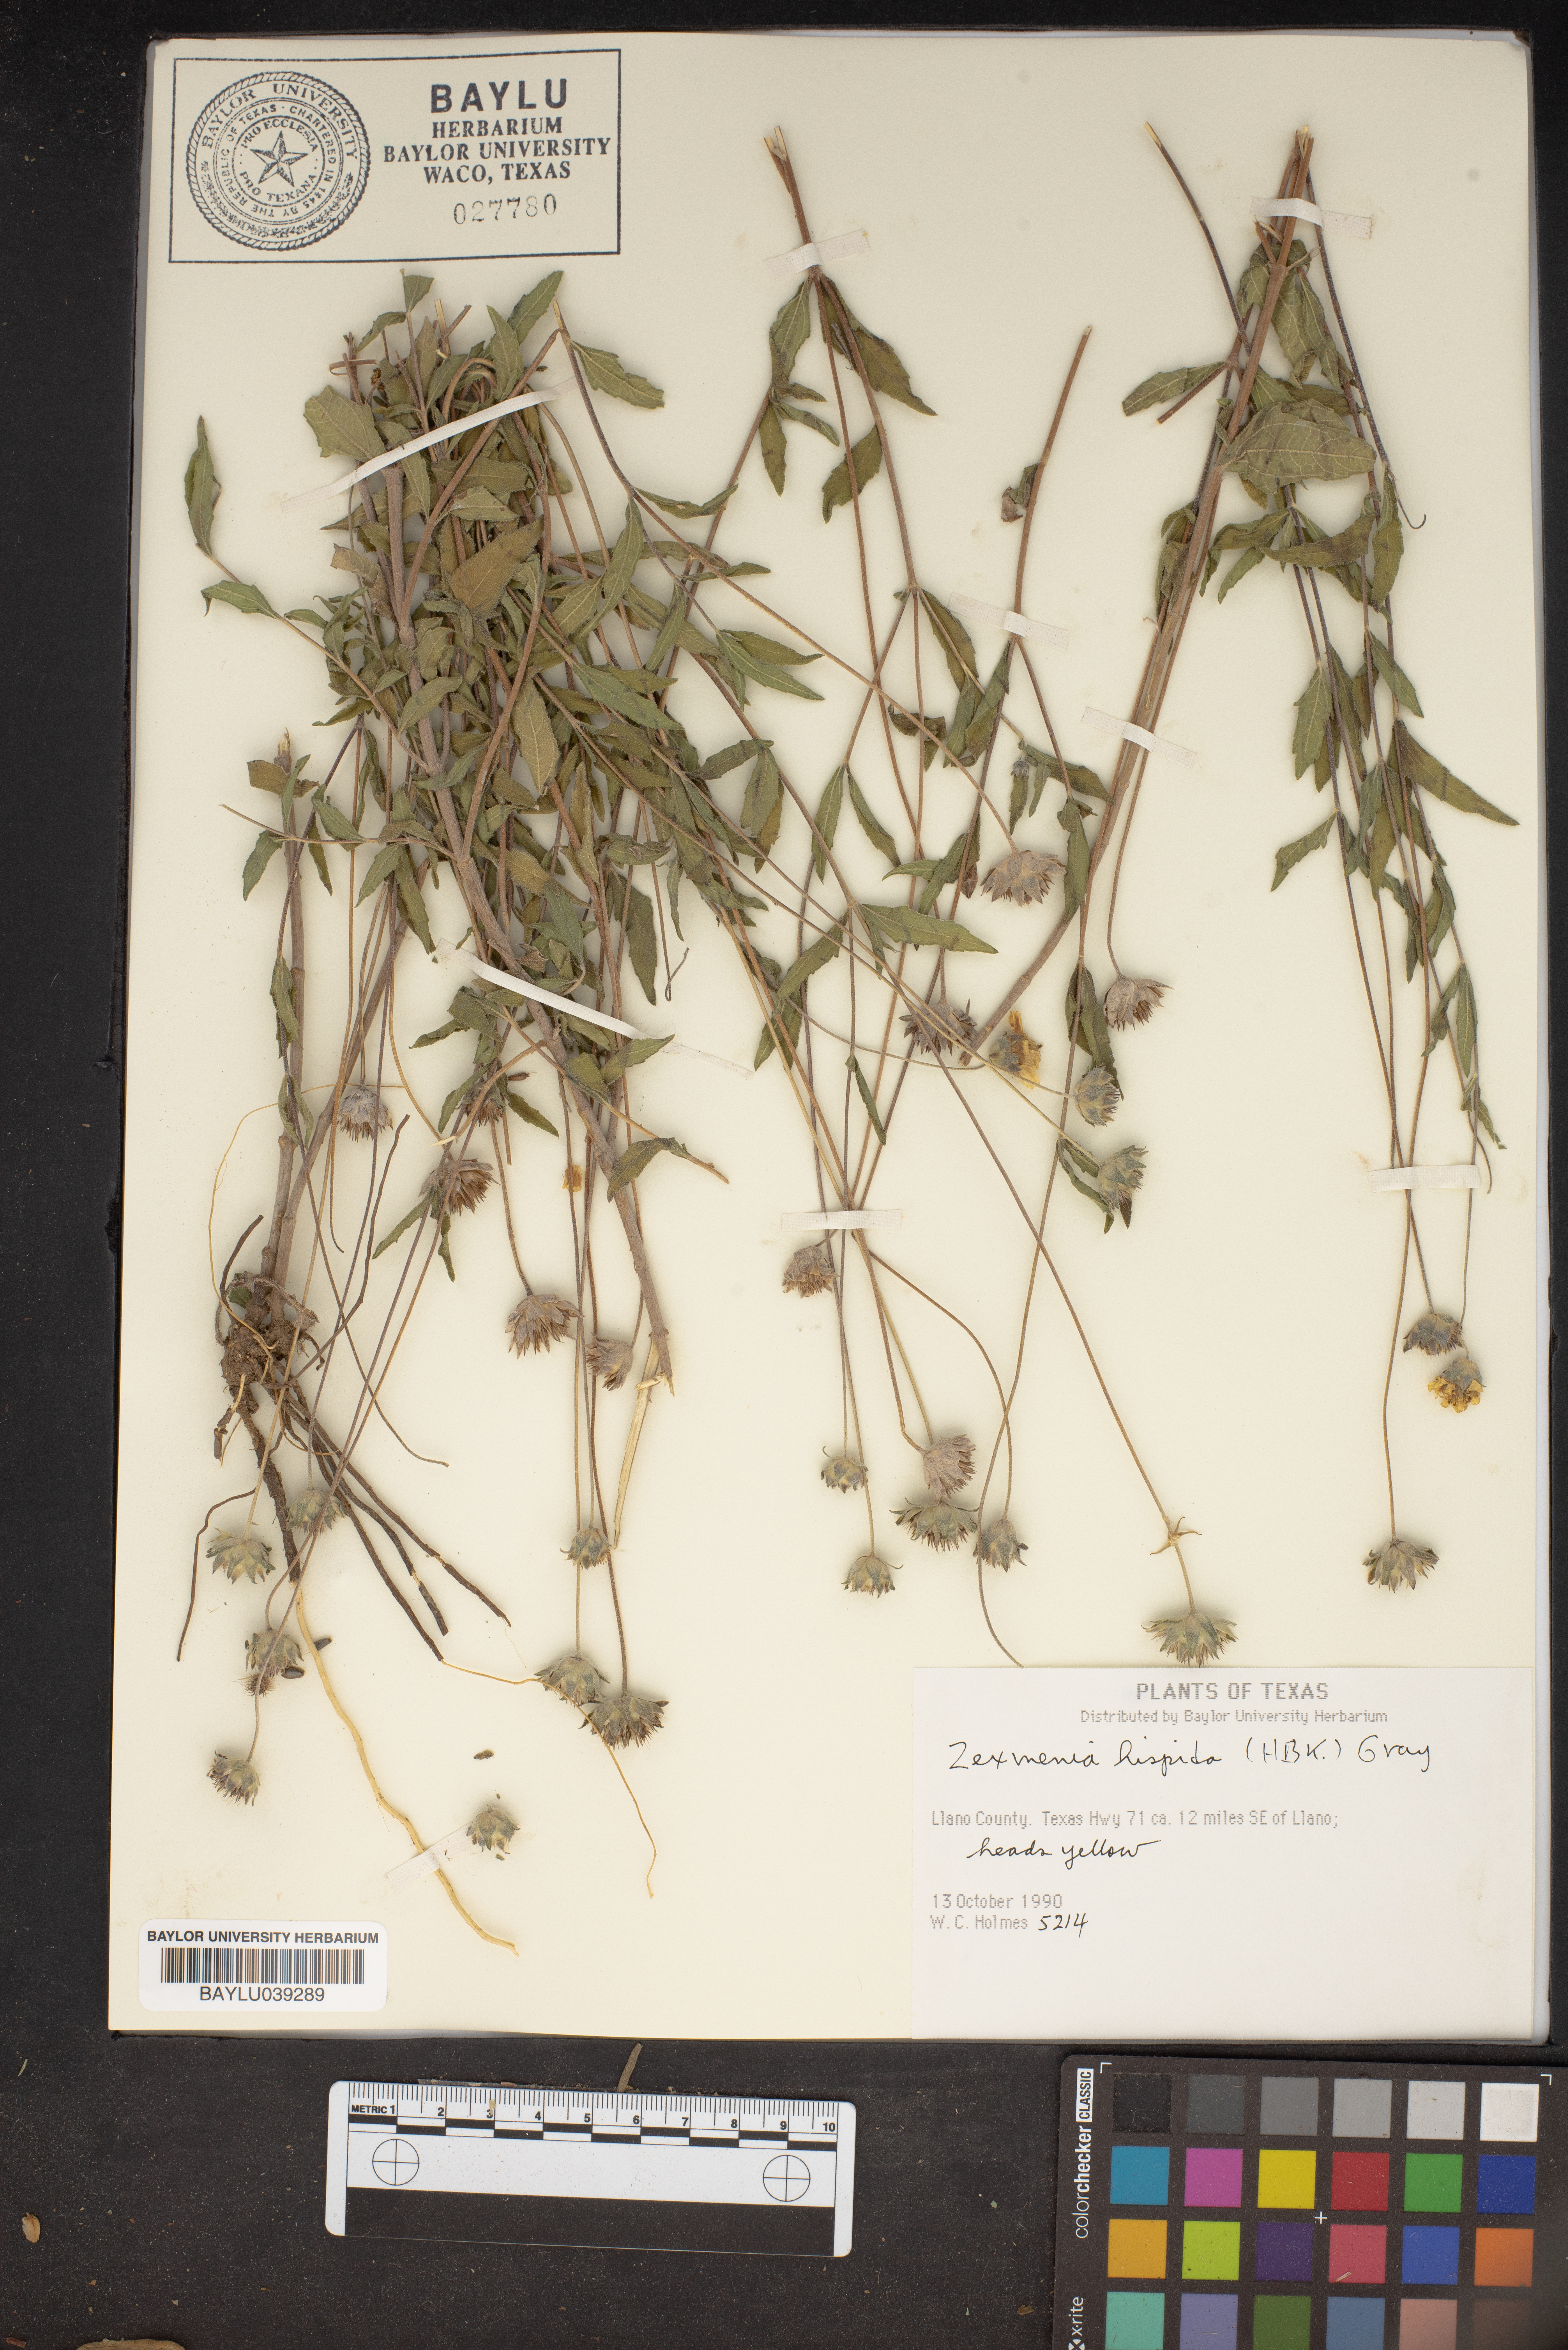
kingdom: Plantae
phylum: Tracheophyta
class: Magnoliopsida
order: Asterales
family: Asteraceae
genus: Wedelia
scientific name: Wedelia acapulcensis
